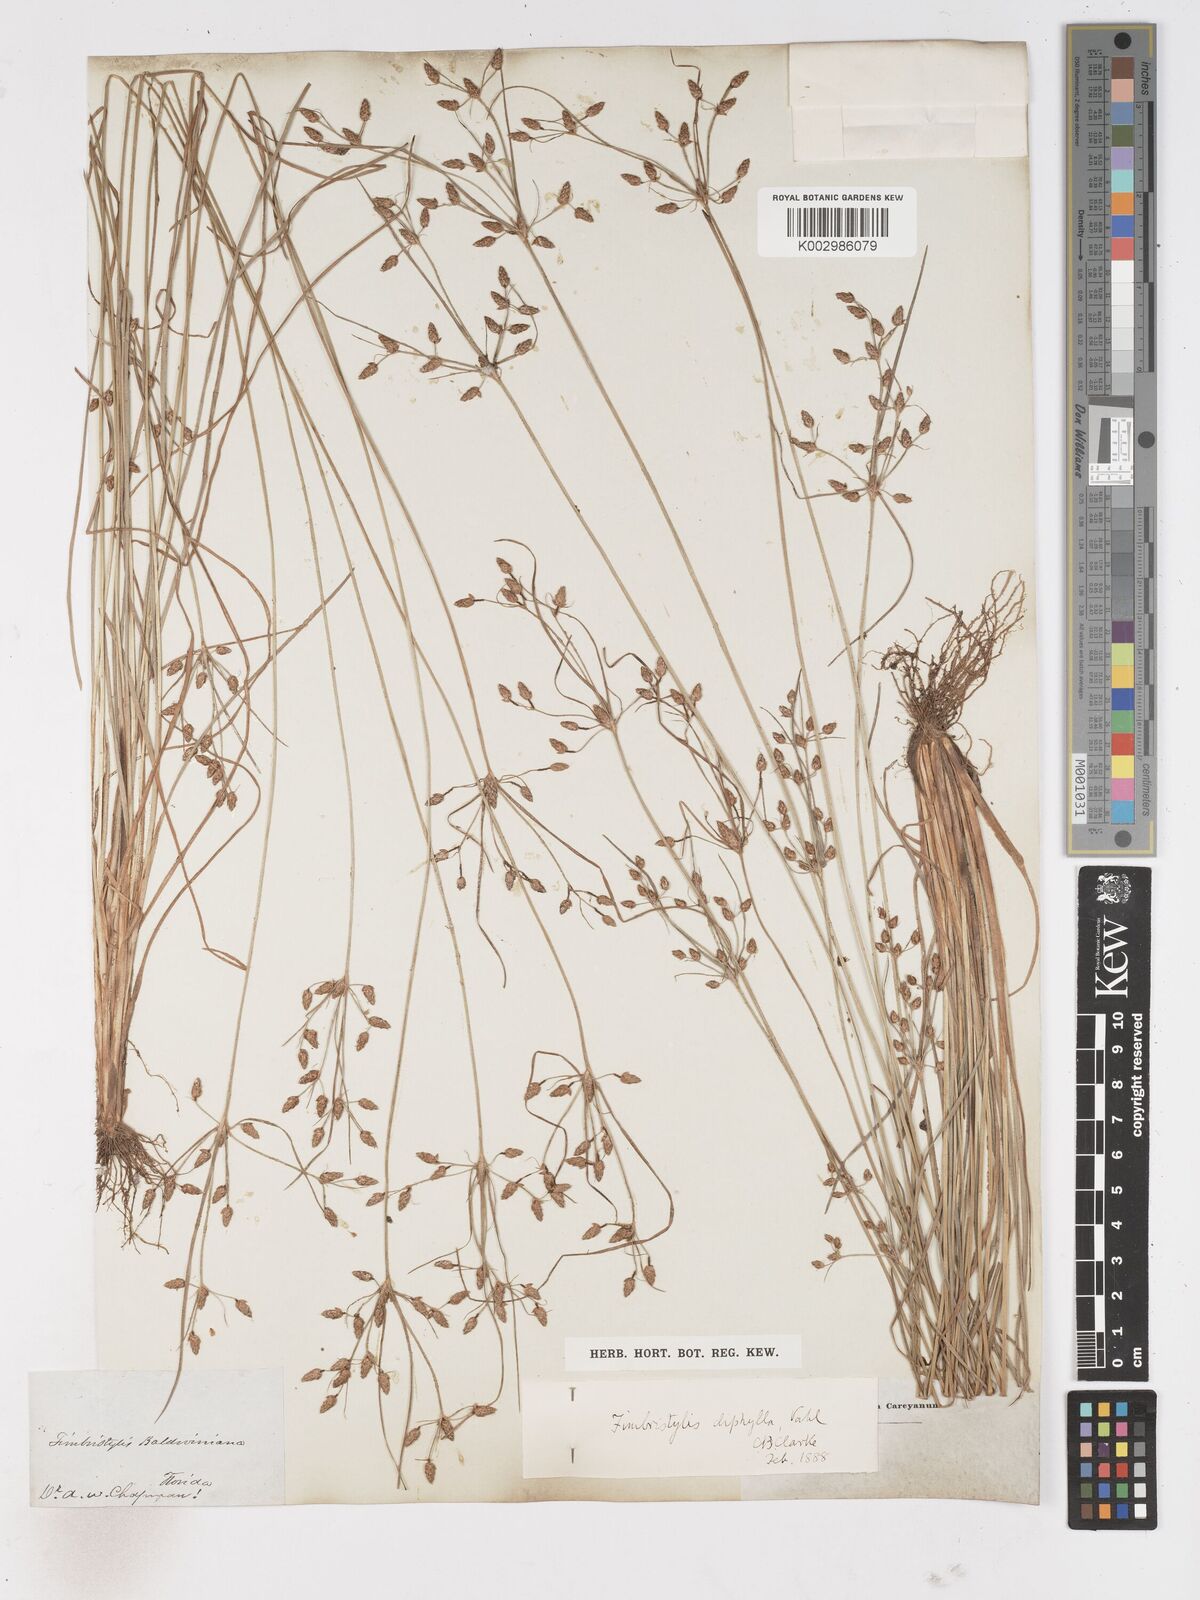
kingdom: Plantae
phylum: Tracheophyta
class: Liliopsida
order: Poales
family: Cyperaceae
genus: Fimbristylis
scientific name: Fimbristylis dichotoma
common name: Forked fimbry
